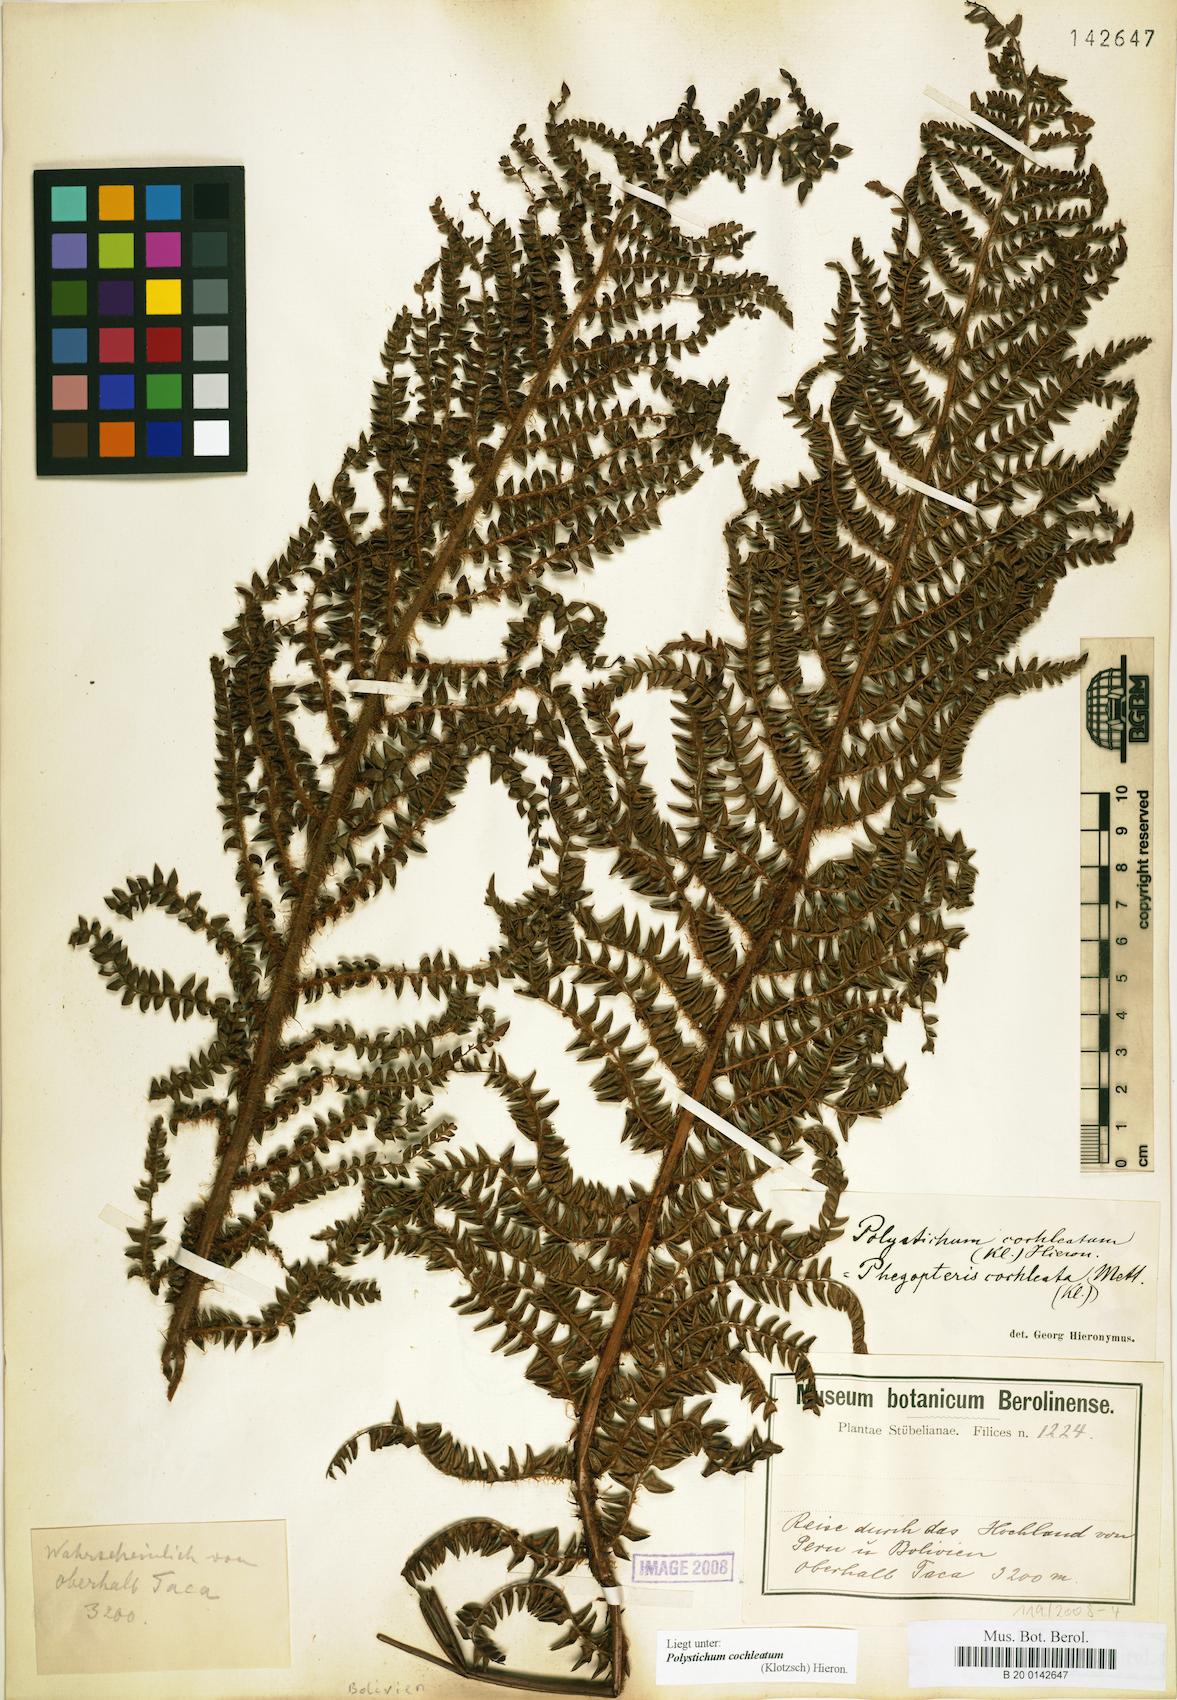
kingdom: Plantae
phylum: Tracheophyta
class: Polypodiopsida
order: Polypodiales
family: Dryopteridaceae
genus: Polystichum
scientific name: Polystichum cochleatum
